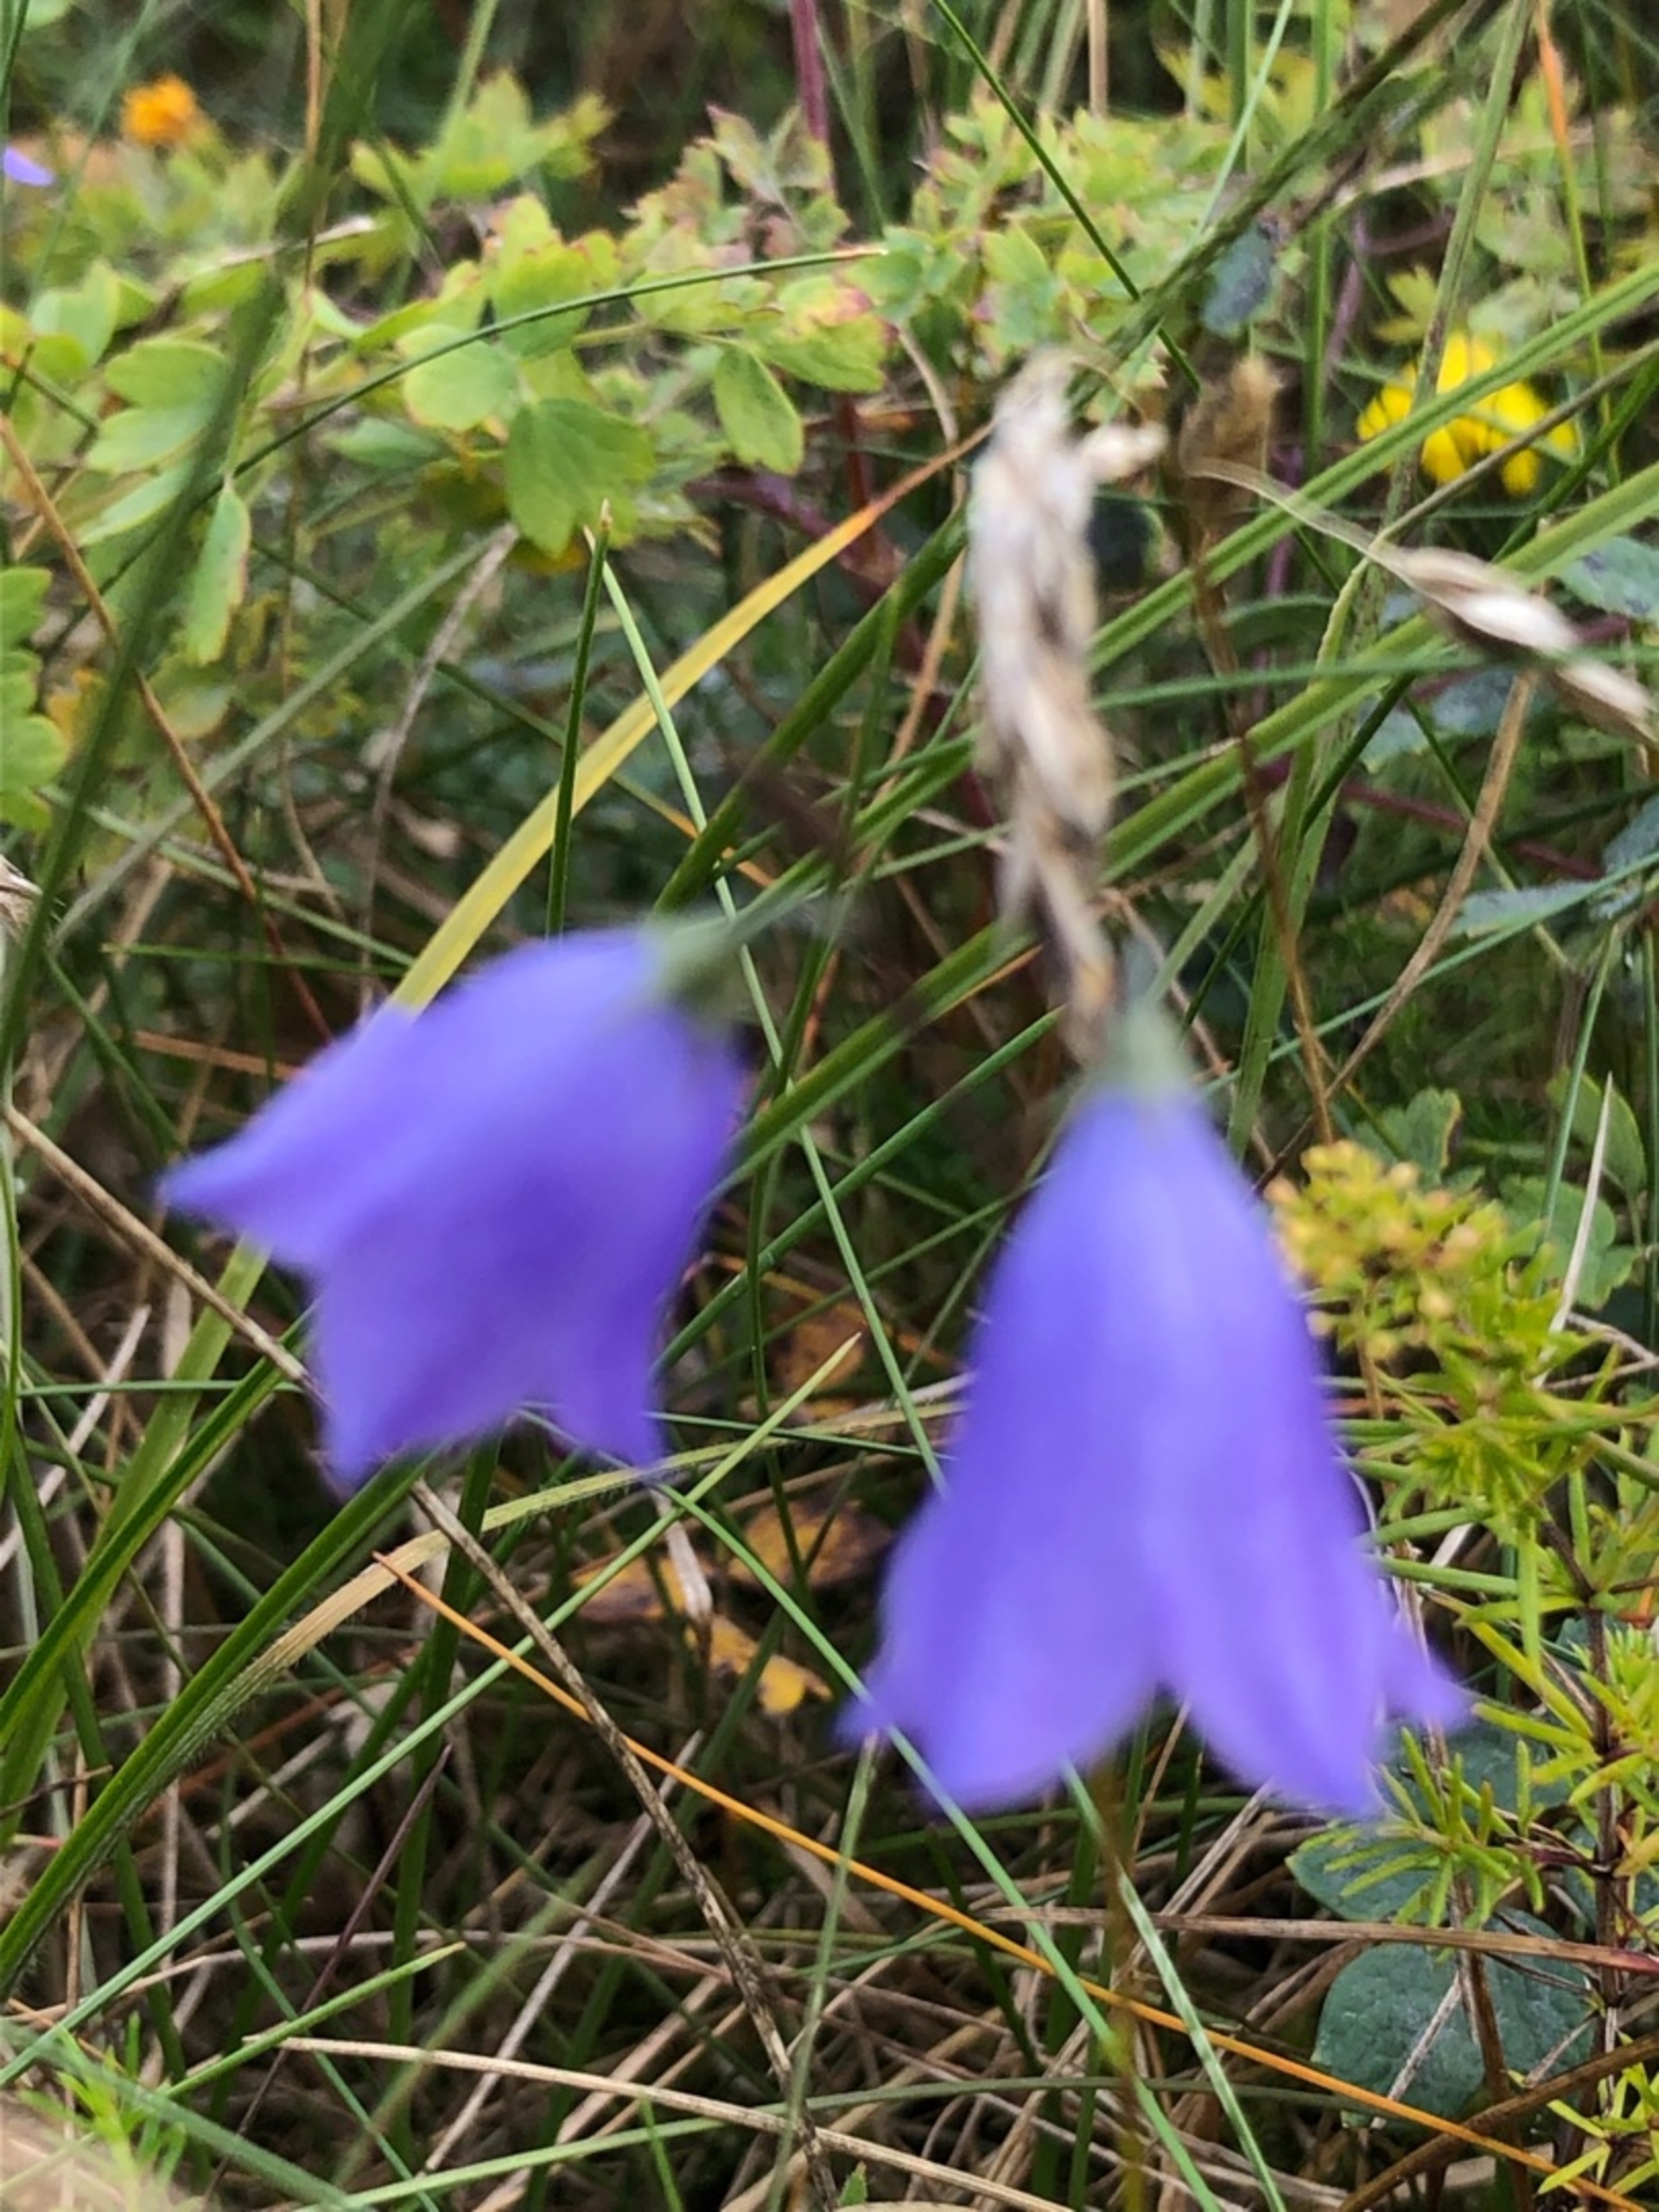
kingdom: Plantae
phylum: Tracheophyta
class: Magnoliopsida
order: Asterales
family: Campanulaceae
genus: Campanula
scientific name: Campanula rotundifolia
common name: Liden klokke
